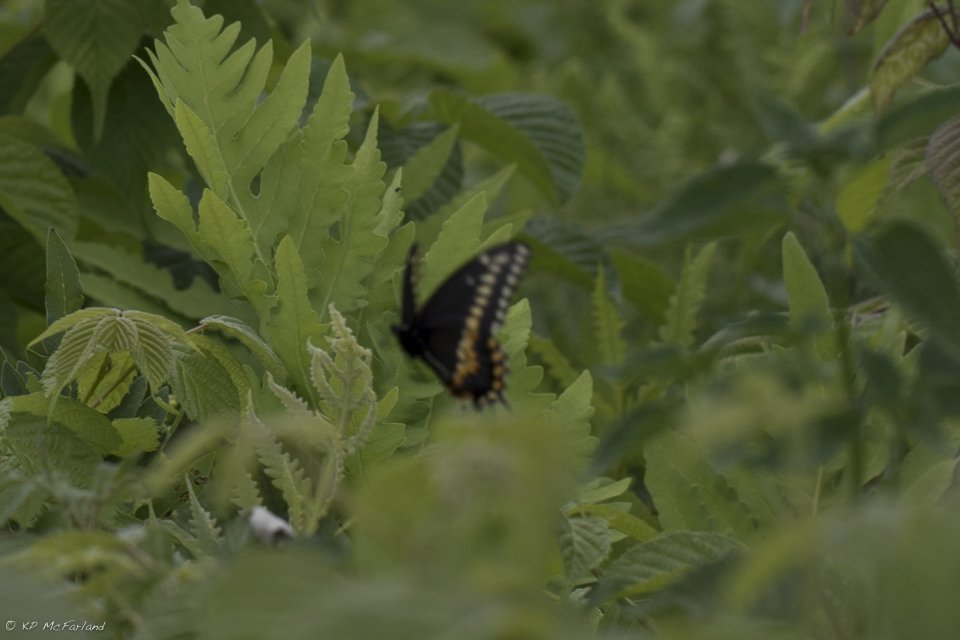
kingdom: Animalia
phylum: Arthropoda
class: Insecta
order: Lepidoptera
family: Papilionidae
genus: Papilio
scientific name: Papilio polyxenes
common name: Black Swallowtail
